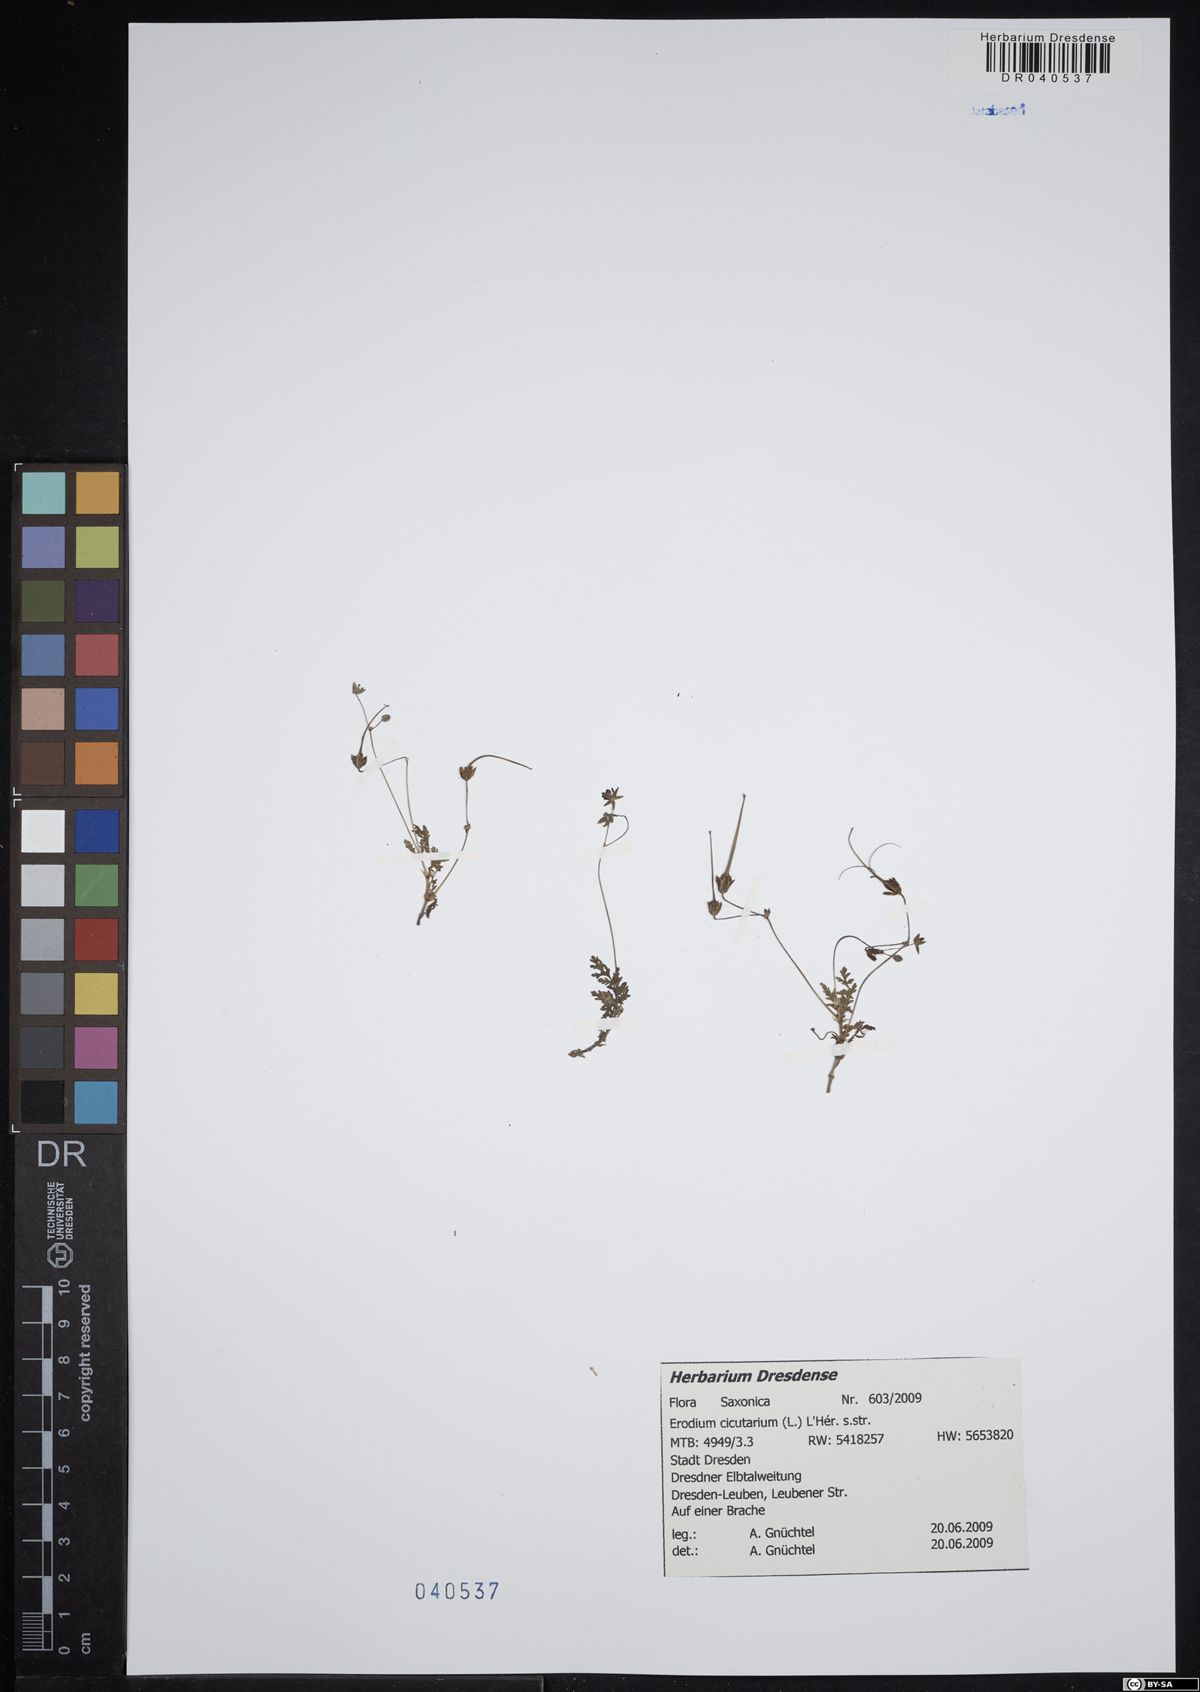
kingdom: Plantae
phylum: Tracheophyta
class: Magnoliopsida
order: Geraniales
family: Geraniaceae
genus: Erodium
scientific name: Erodium cicutarium
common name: Common stork's-bill
